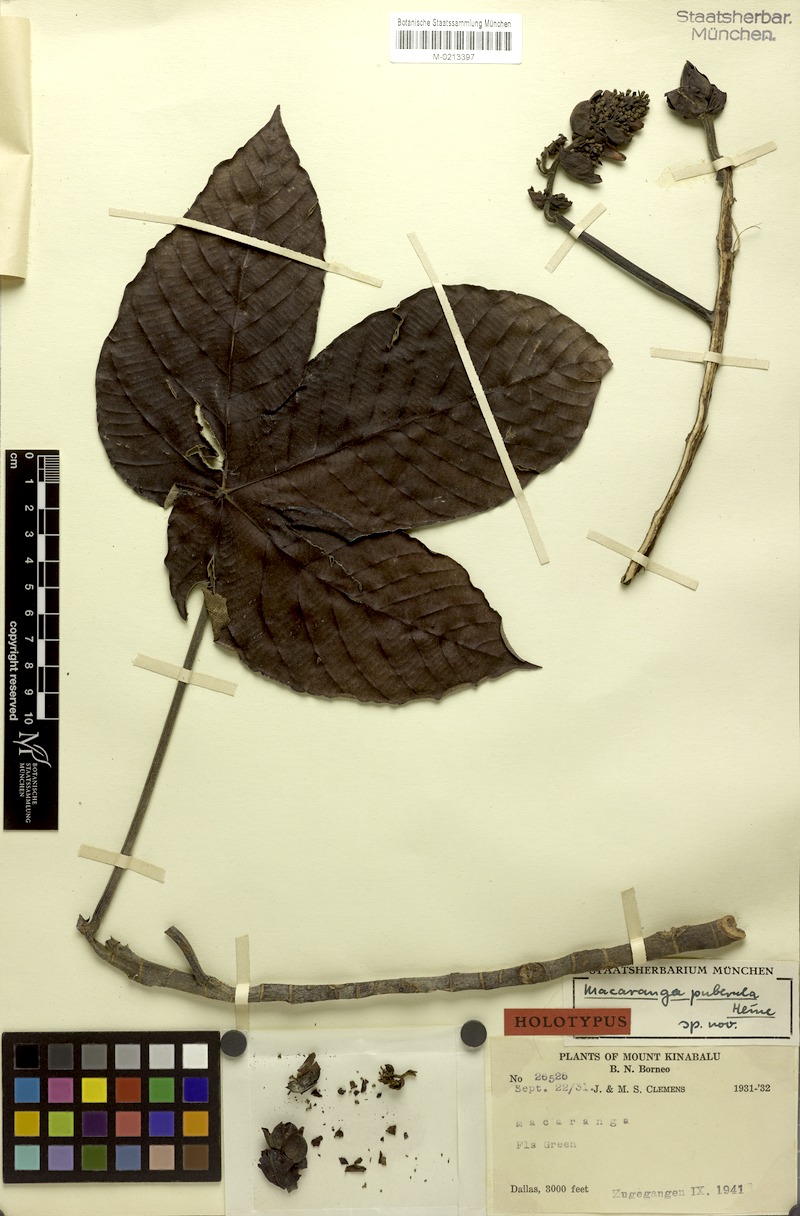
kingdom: Plantae
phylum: Tracheophyta
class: Magnoliopsida
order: Malpighiales
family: Euphorbiaceae
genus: Macaranga
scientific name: Macaranga puberula
